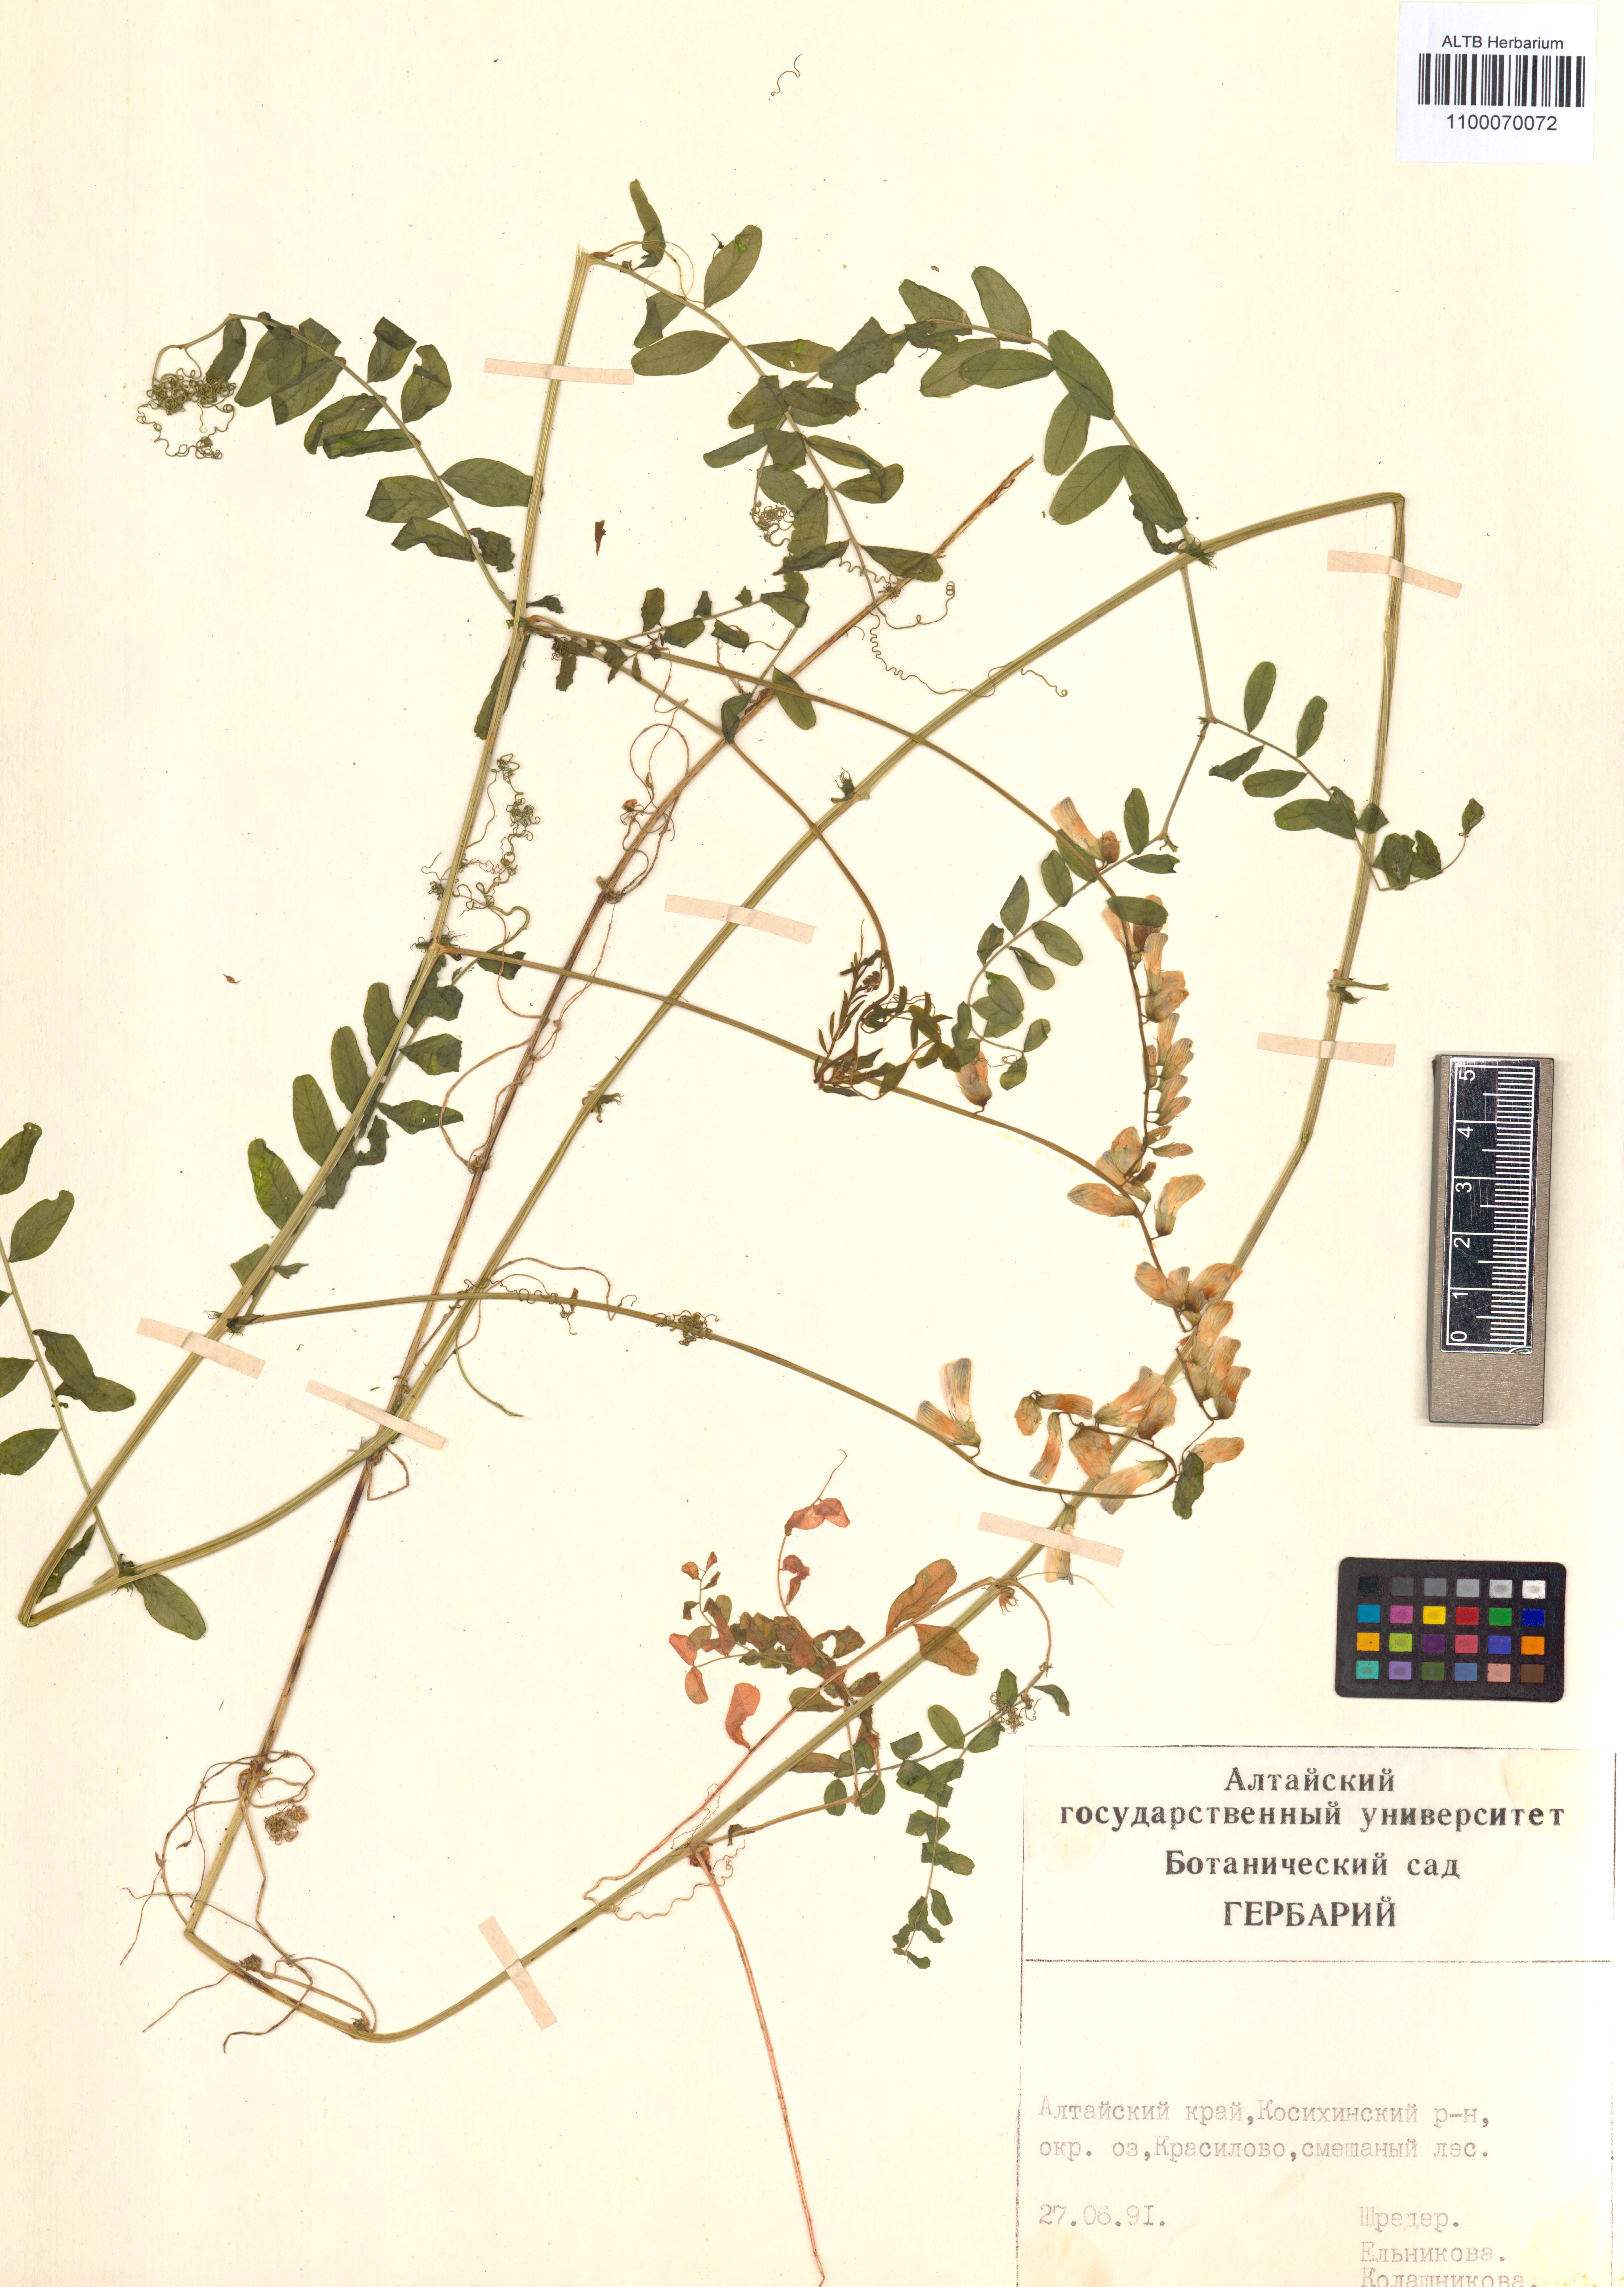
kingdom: Plantae
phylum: Tracheophyta
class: Magnoliopsida
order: Fabales
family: Fabaceae
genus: Vicia
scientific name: Vicia bakeri
